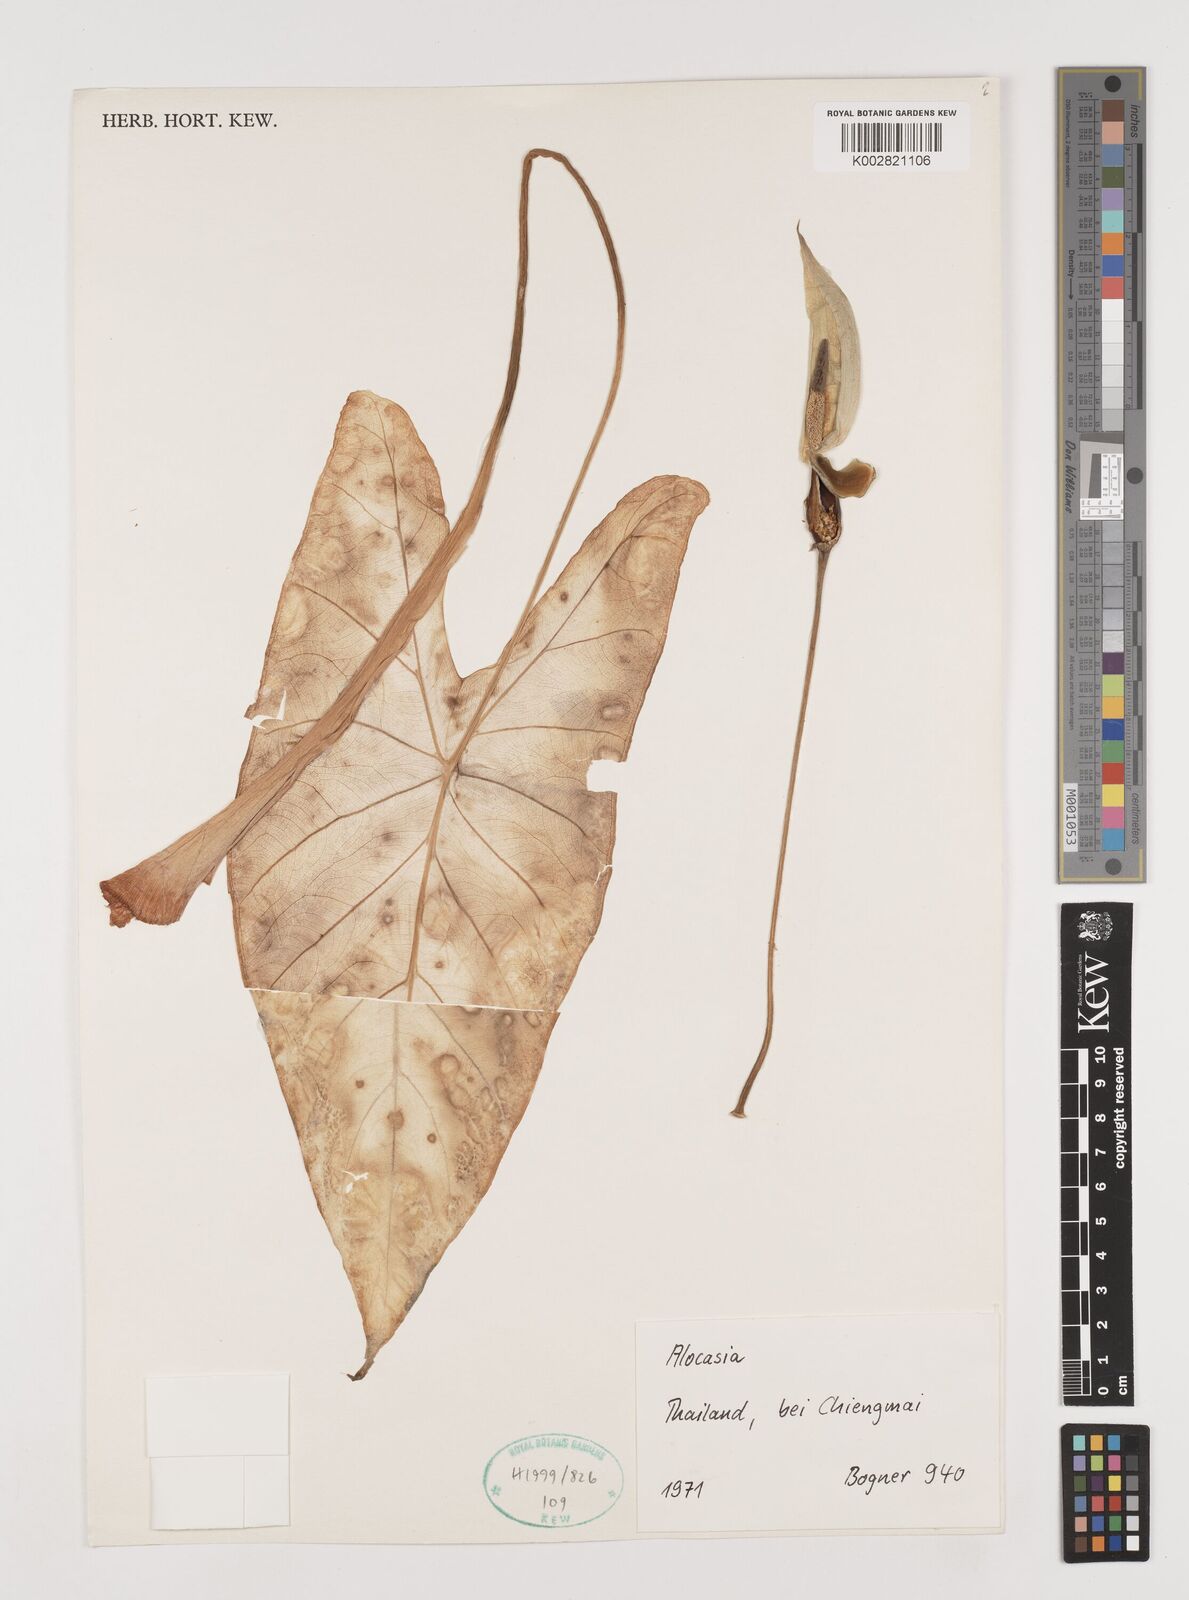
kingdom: Plantae
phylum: Tracheophyta
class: Liliopsida
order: Alismatales
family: Araceae
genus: Alocasia
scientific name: Alocasia
